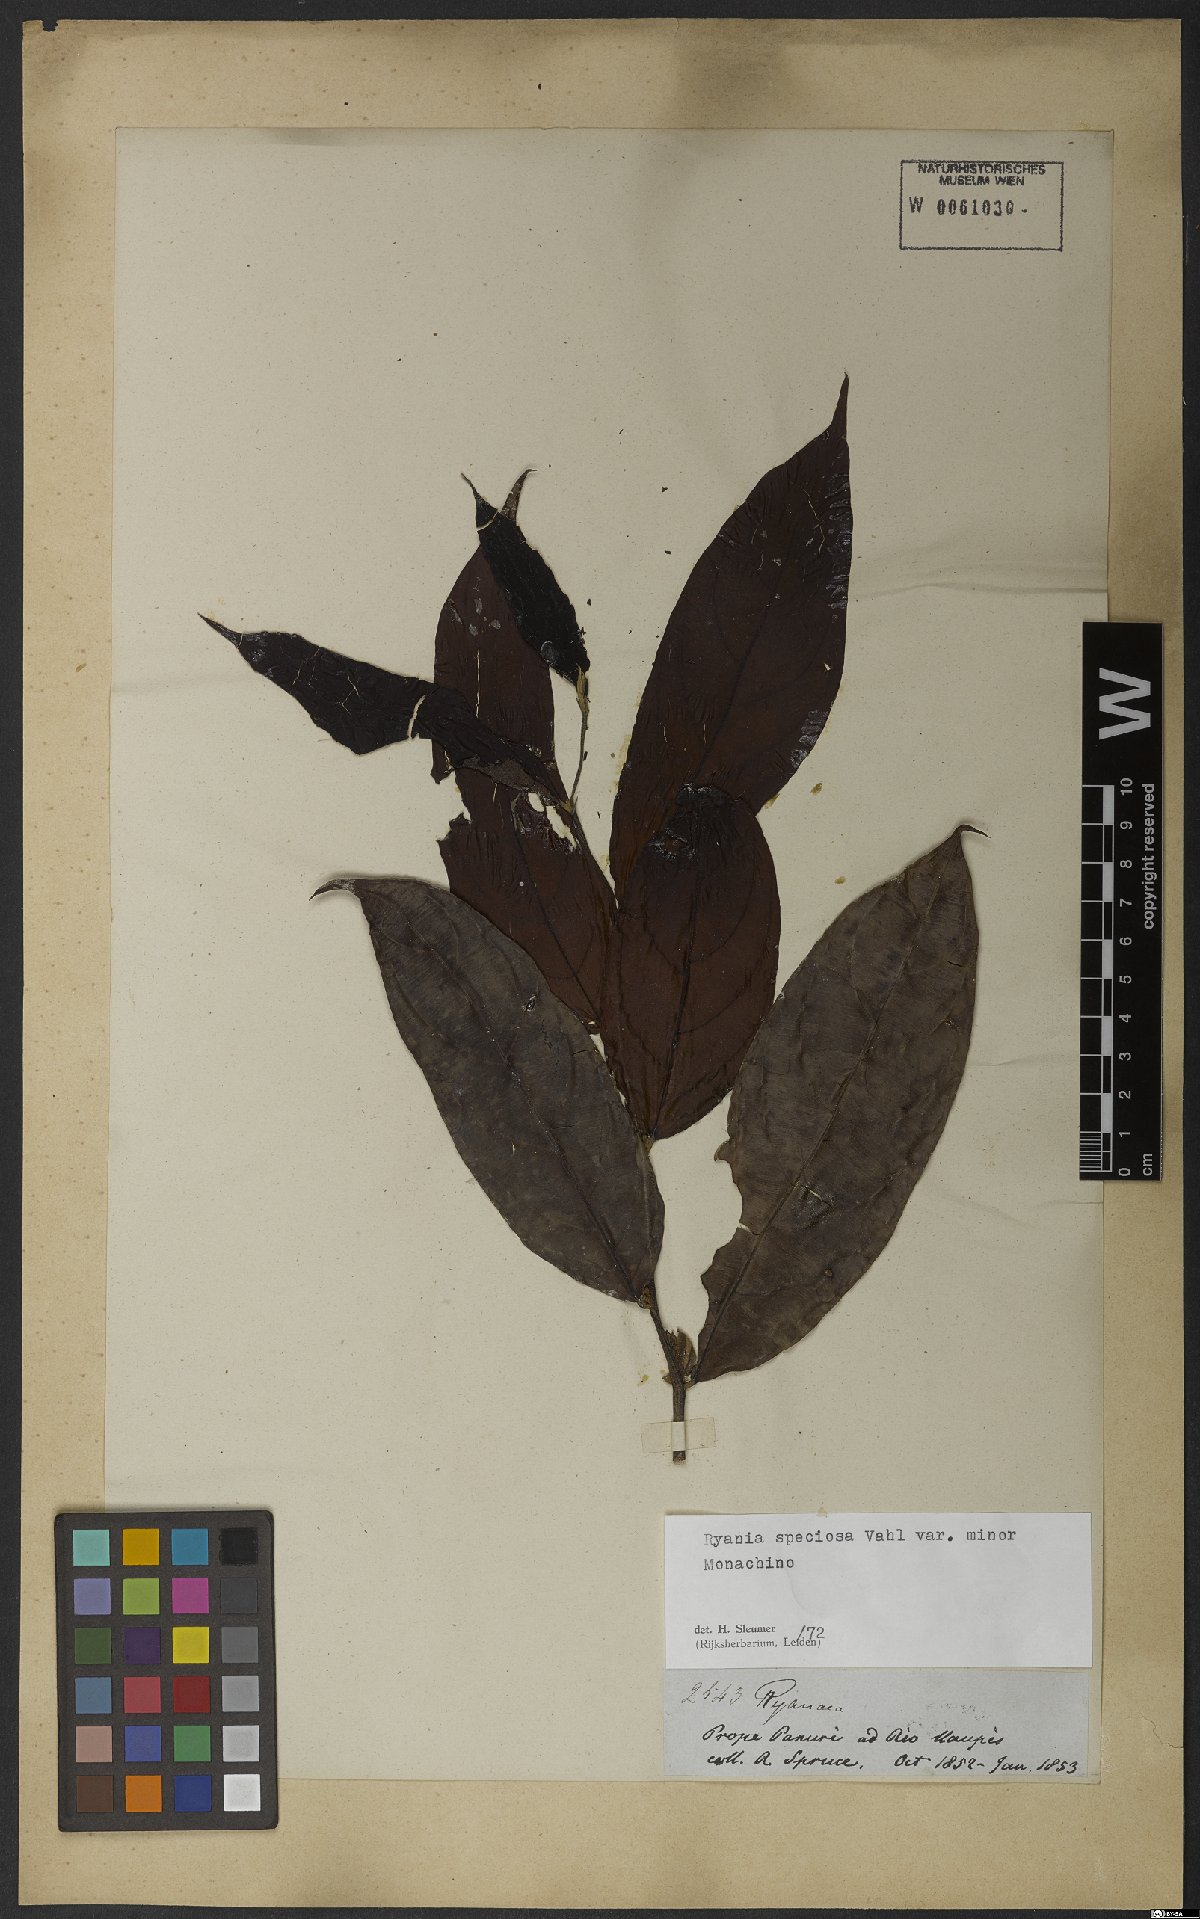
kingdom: Plantae
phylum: Tracheophyta
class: Magnoliopsida
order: Malpighiales
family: Salicaceae
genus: Ryania
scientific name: Ryania speciosa
